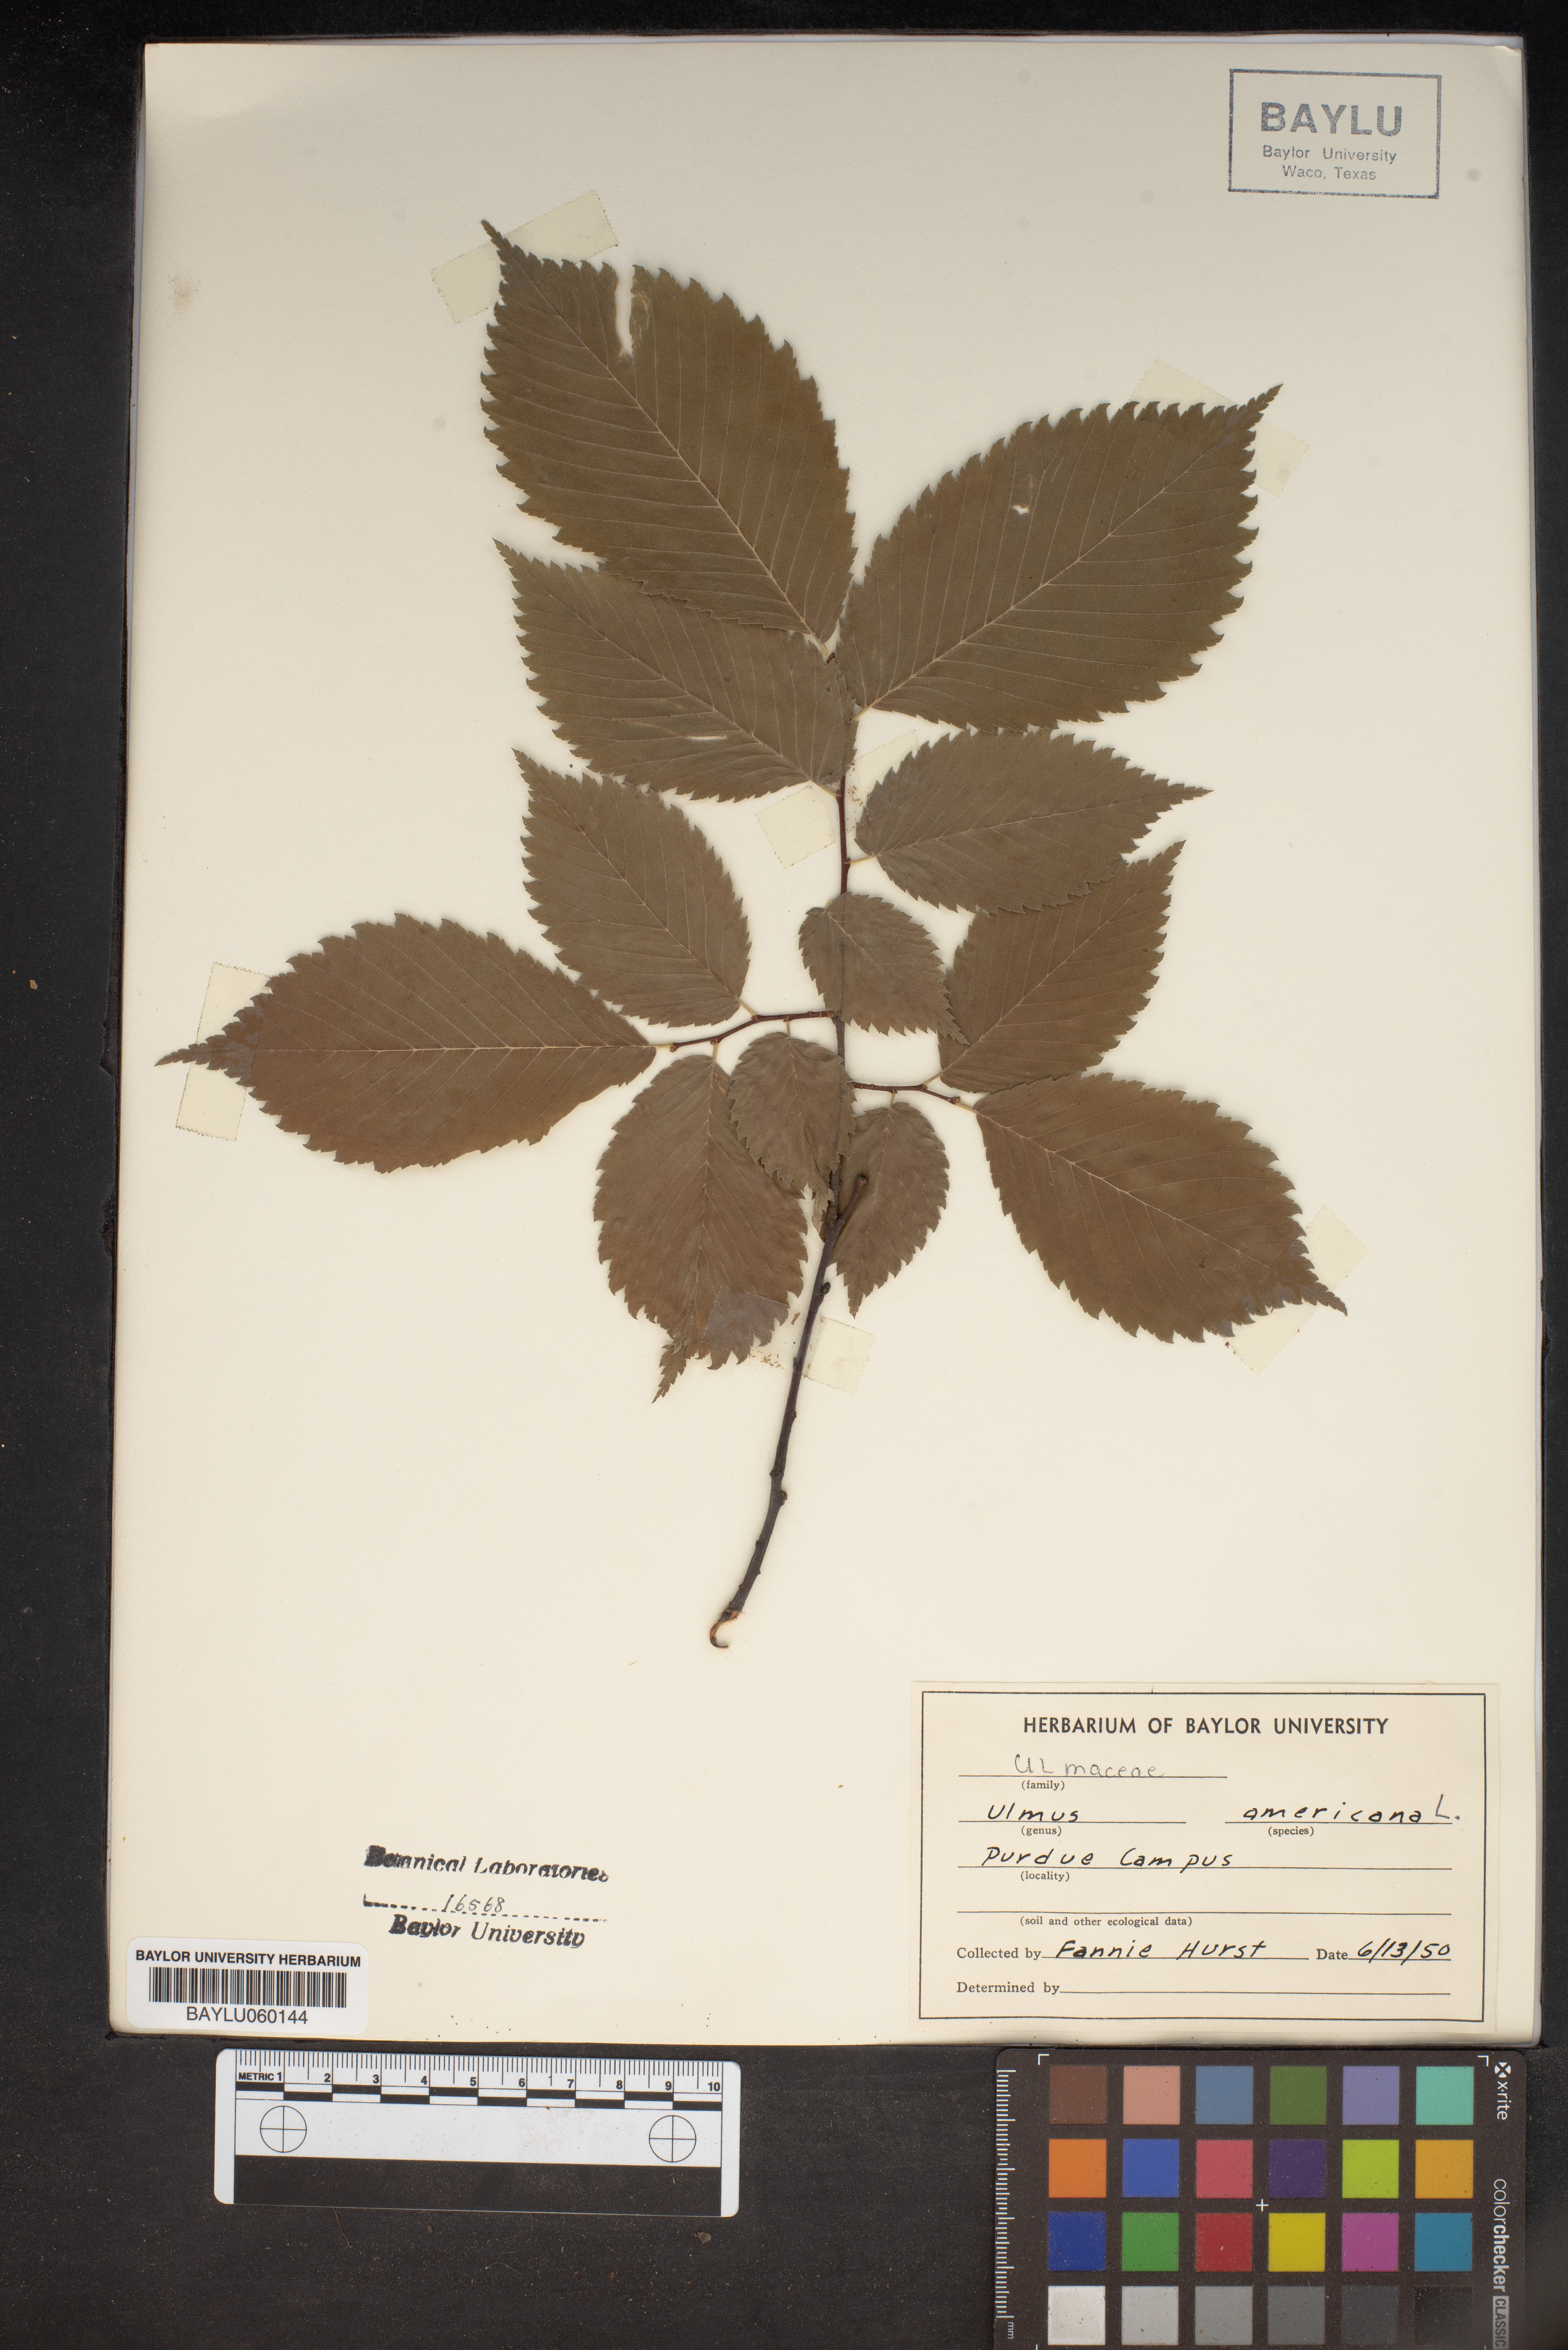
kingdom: Plantae
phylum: Tracheophyta
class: Magnoliopsida
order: Rosales
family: Ulmaceae
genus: Ulmus
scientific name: Ulmus americana
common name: American elm
